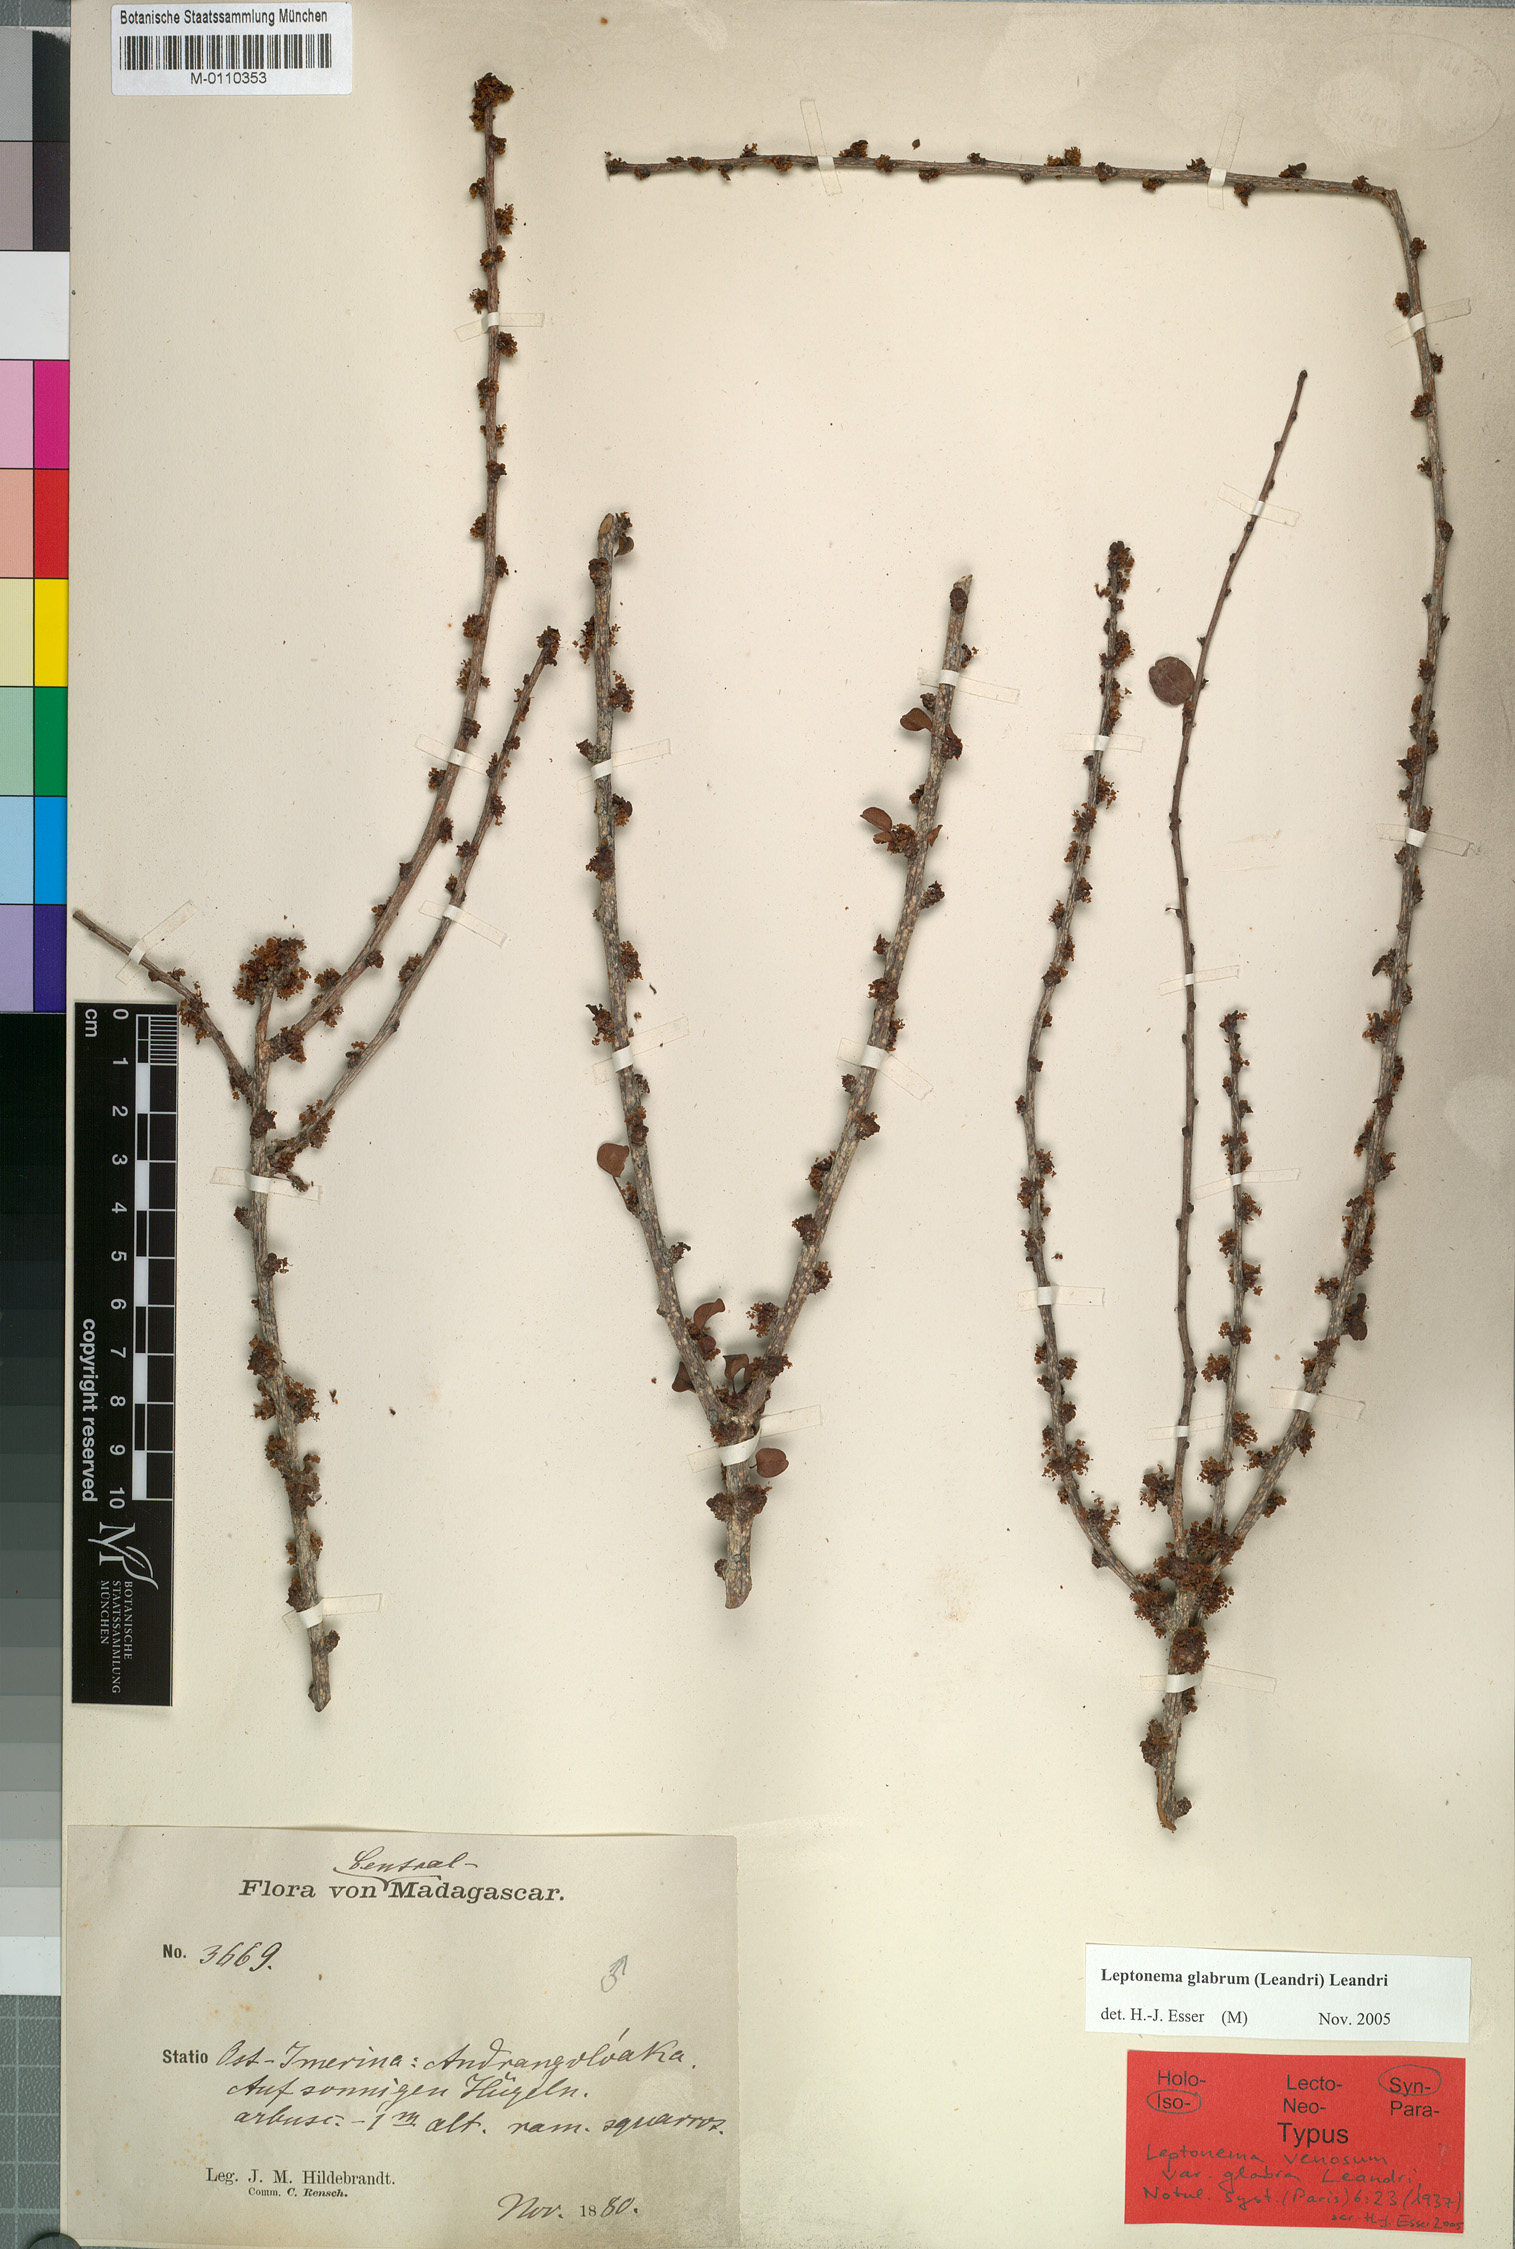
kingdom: Plantae
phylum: Tracheophyta
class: Magnoliopsida
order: Malpighiales
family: Phyllanthaceae
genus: Leptonema
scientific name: Leptonema glabrum
